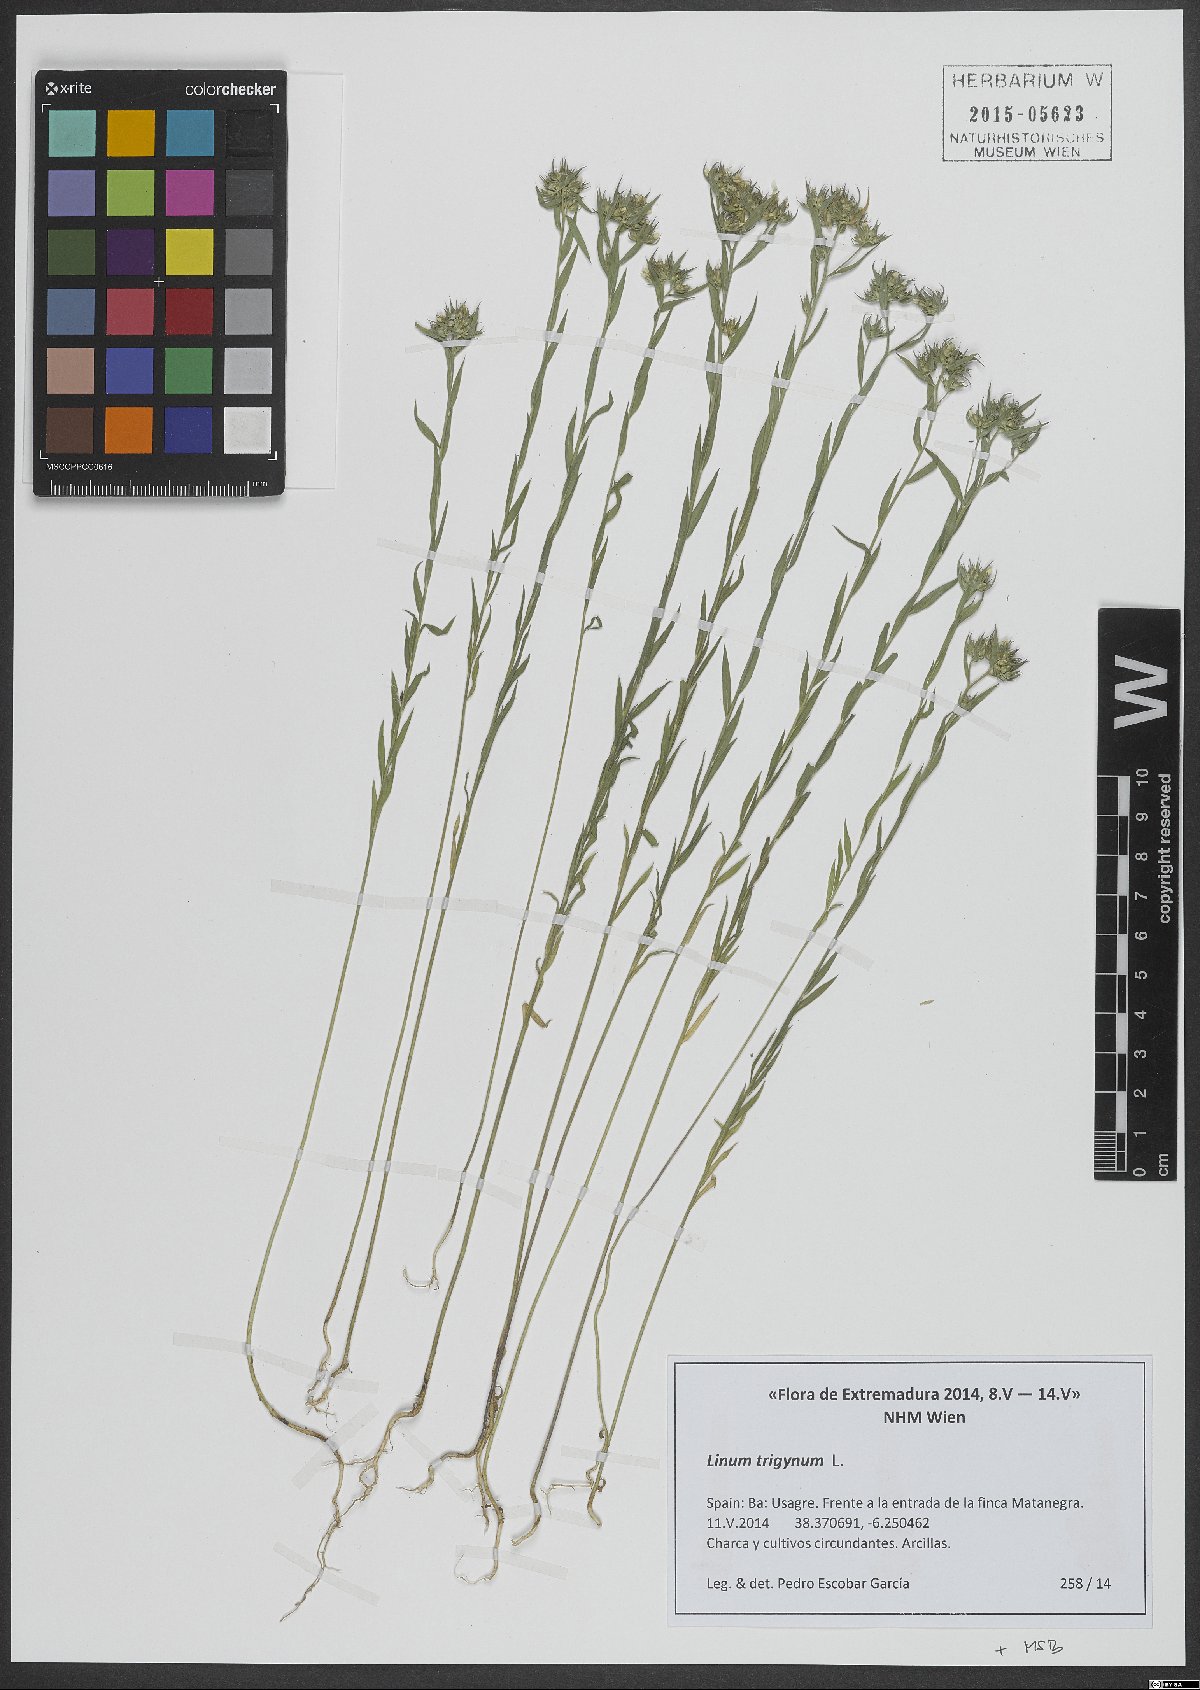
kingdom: Plantae
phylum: Tracheophyta
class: Magnoliopsida
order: Malpighiales
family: Linaceae
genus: Linum
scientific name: Linum trigynum
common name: French flax
